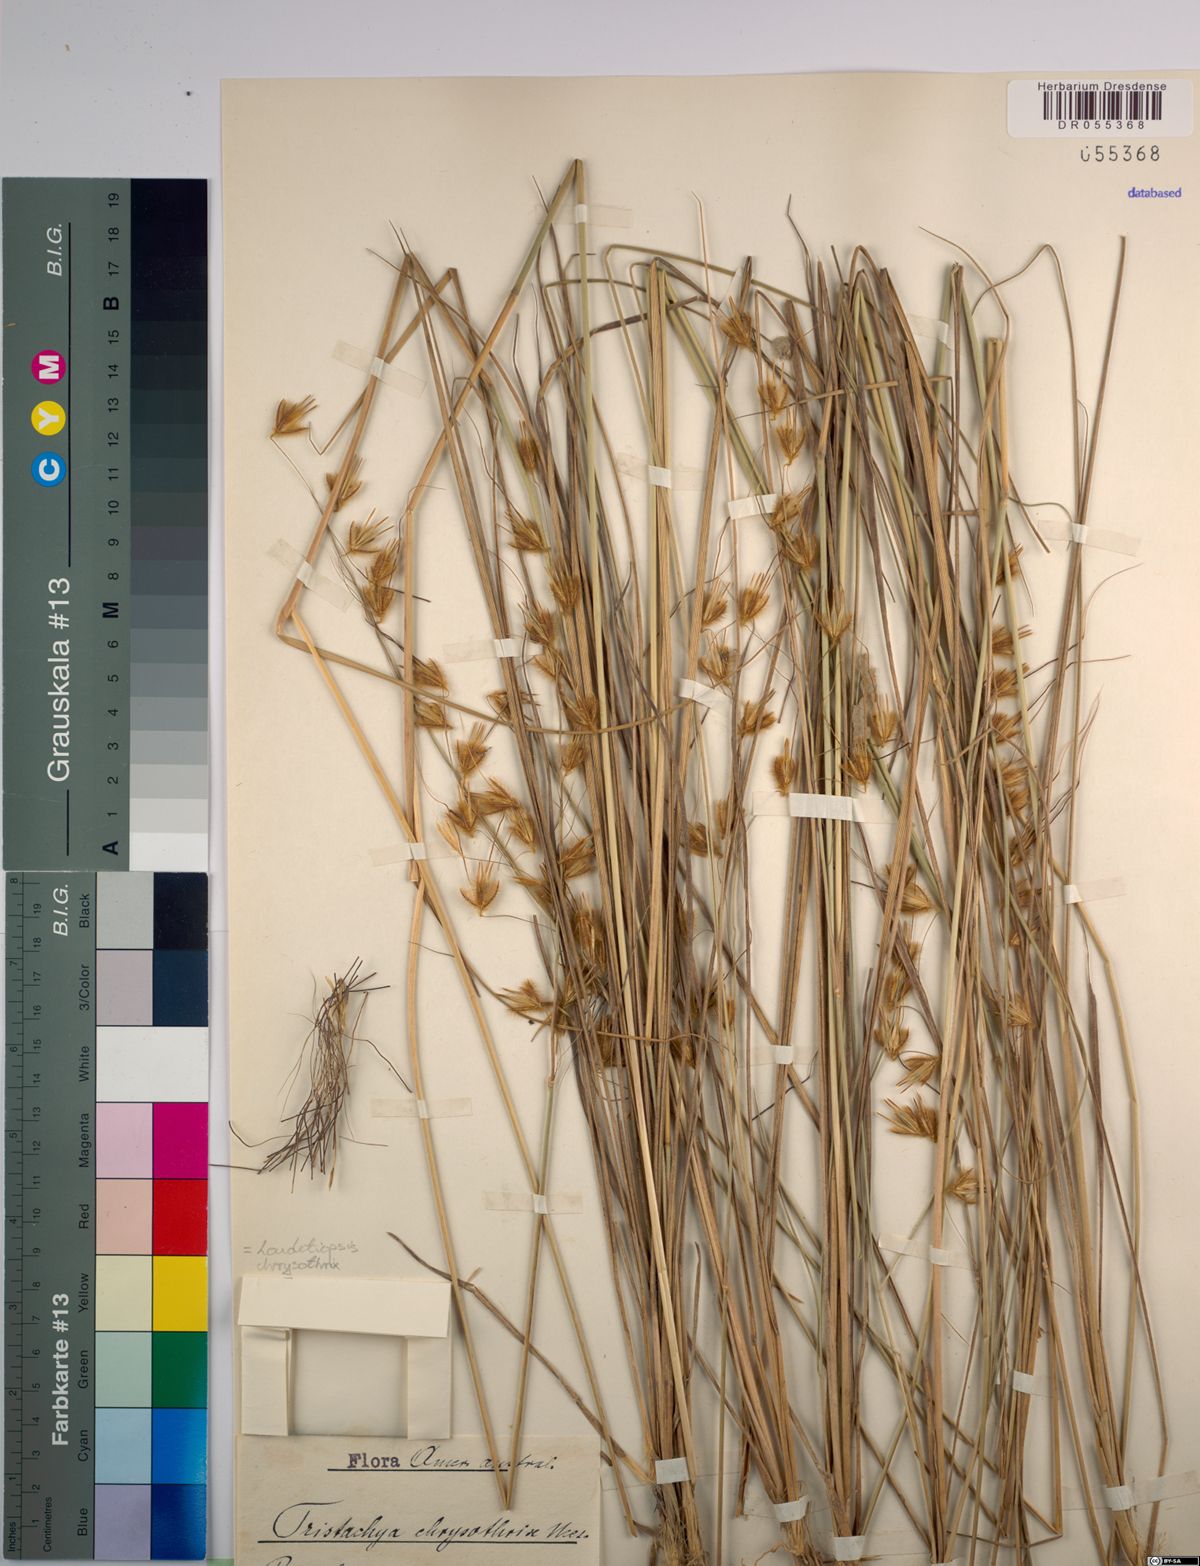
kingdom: Plantae
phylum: Tracheophyta
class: Liliopsida
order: Poales
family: Poaceae
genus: Loudetiopsis
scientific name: Loudetiopsis chrysothrix
